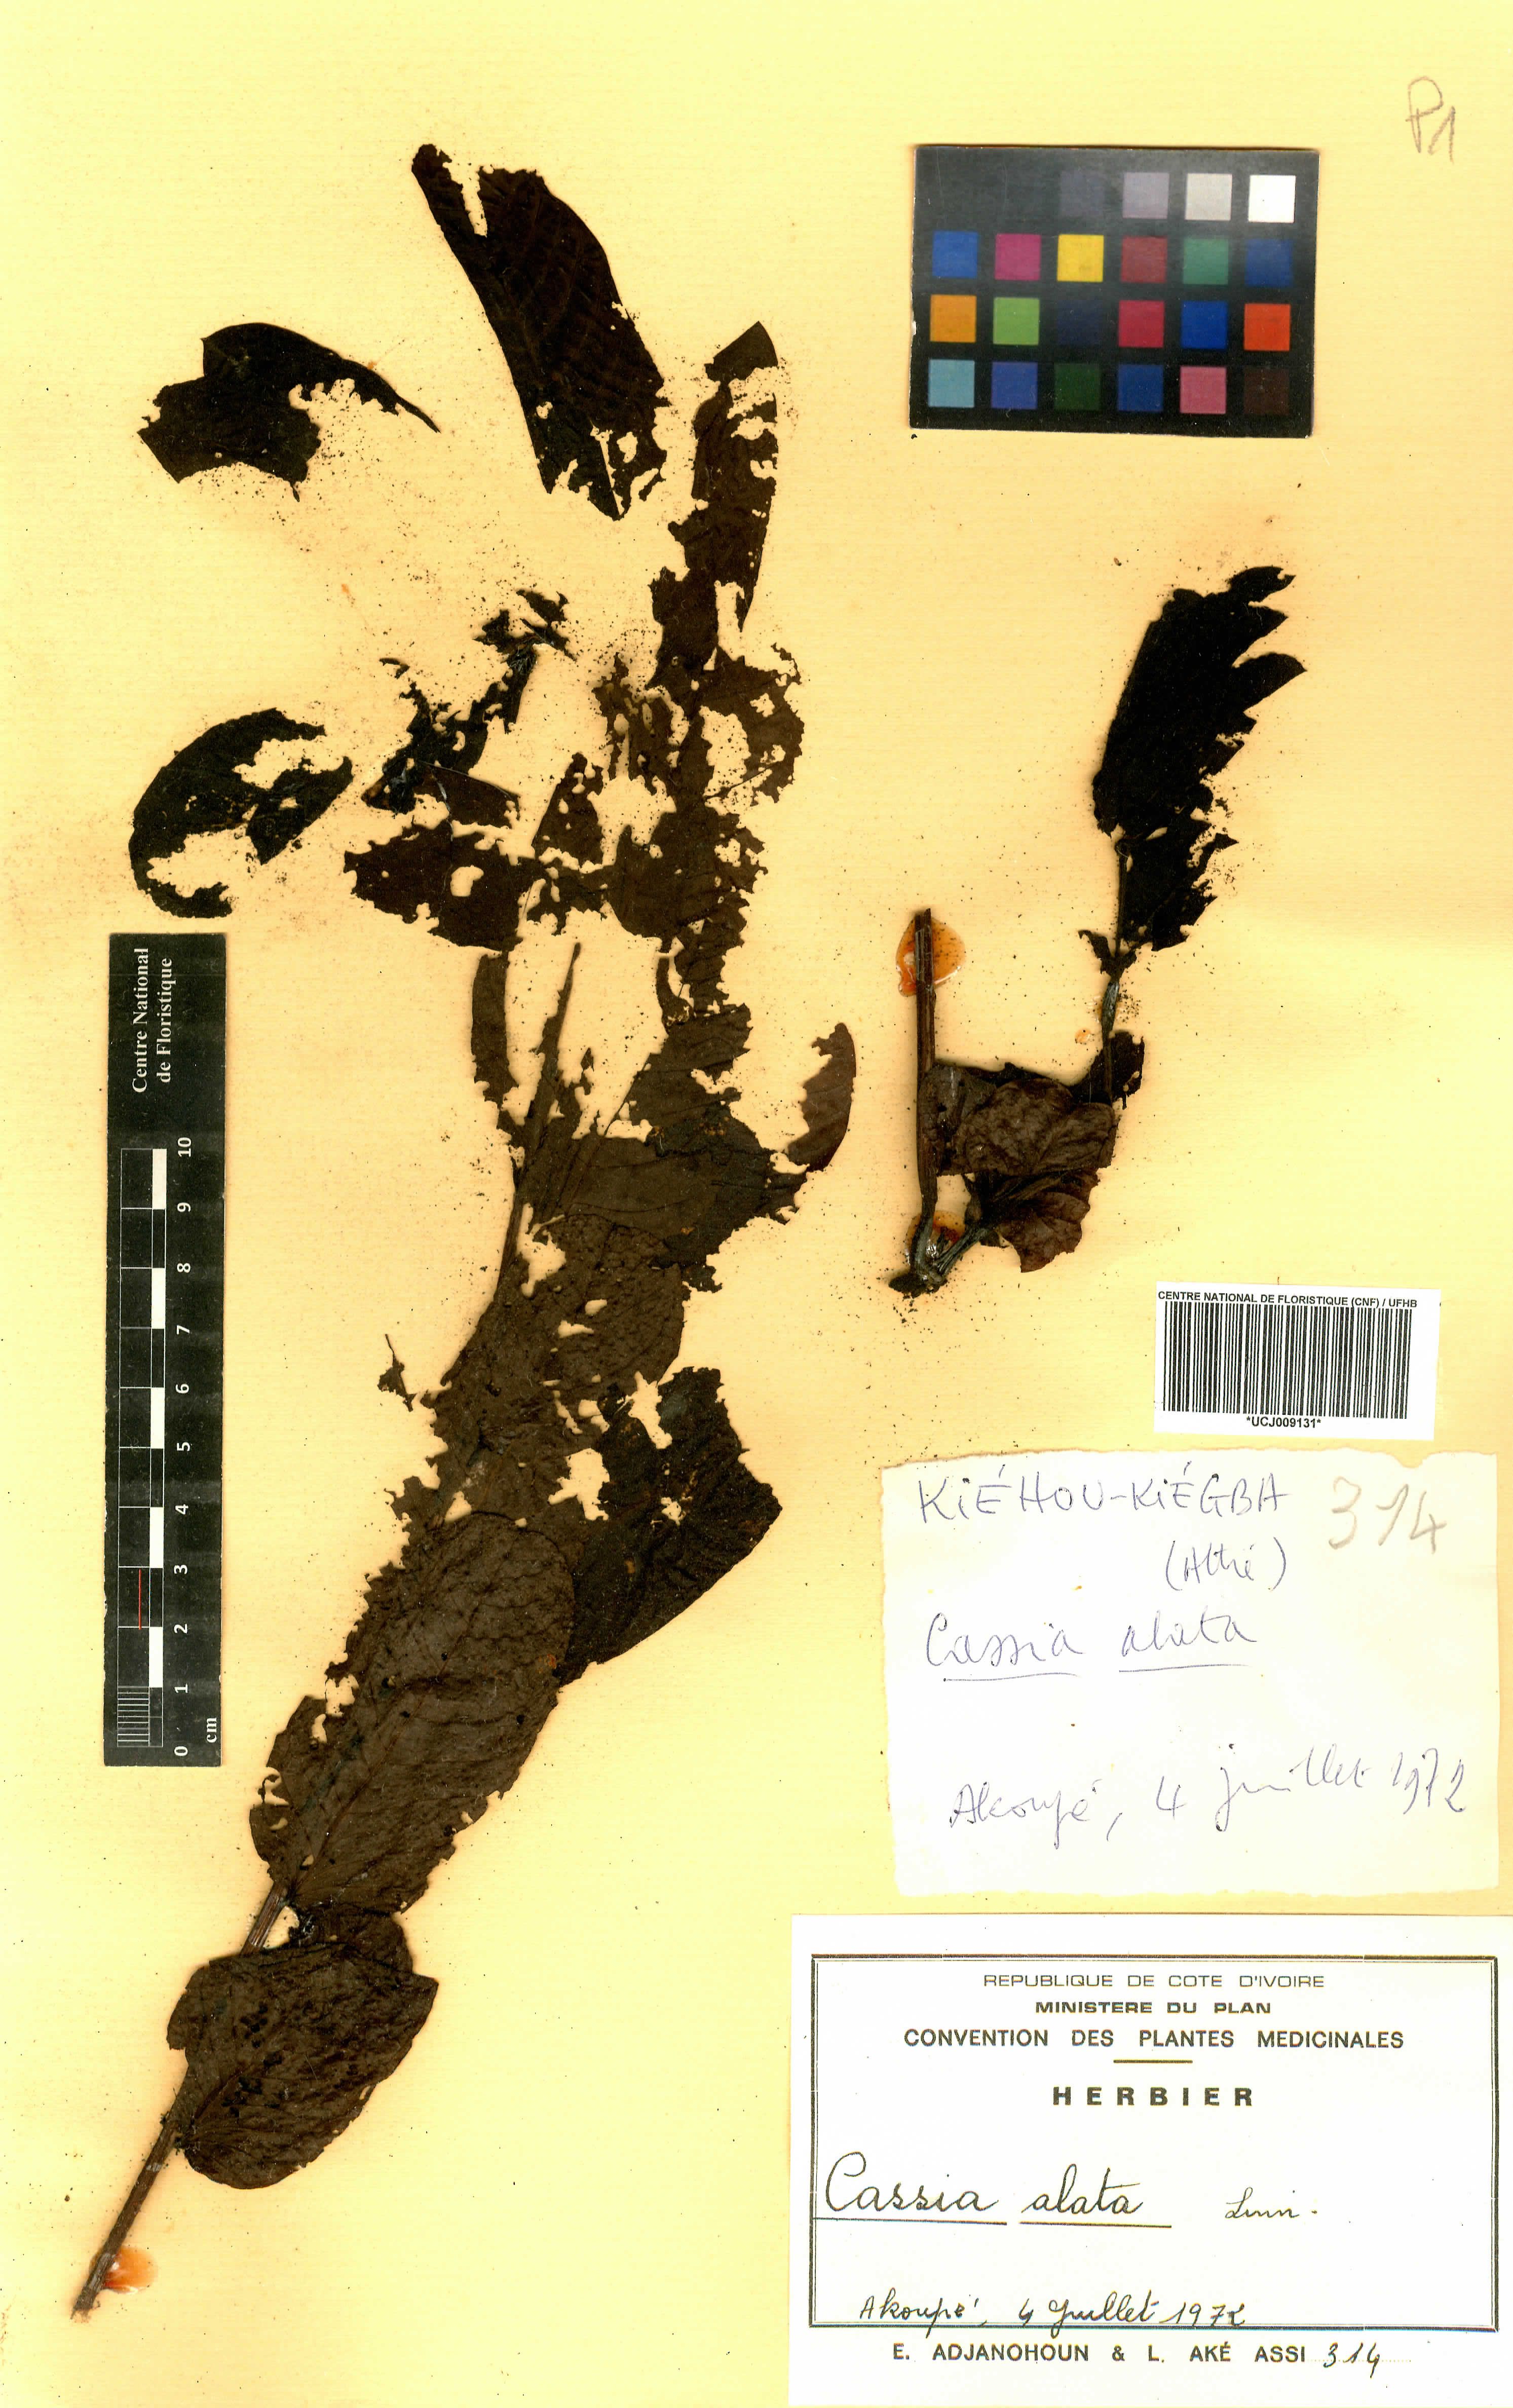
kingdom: Plantae
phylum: Tracheophyta
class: Magnoliopsida
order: Fabales
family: Fabaceae
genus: Senna
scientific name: Senna alata
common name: Emperor's candlesticks
